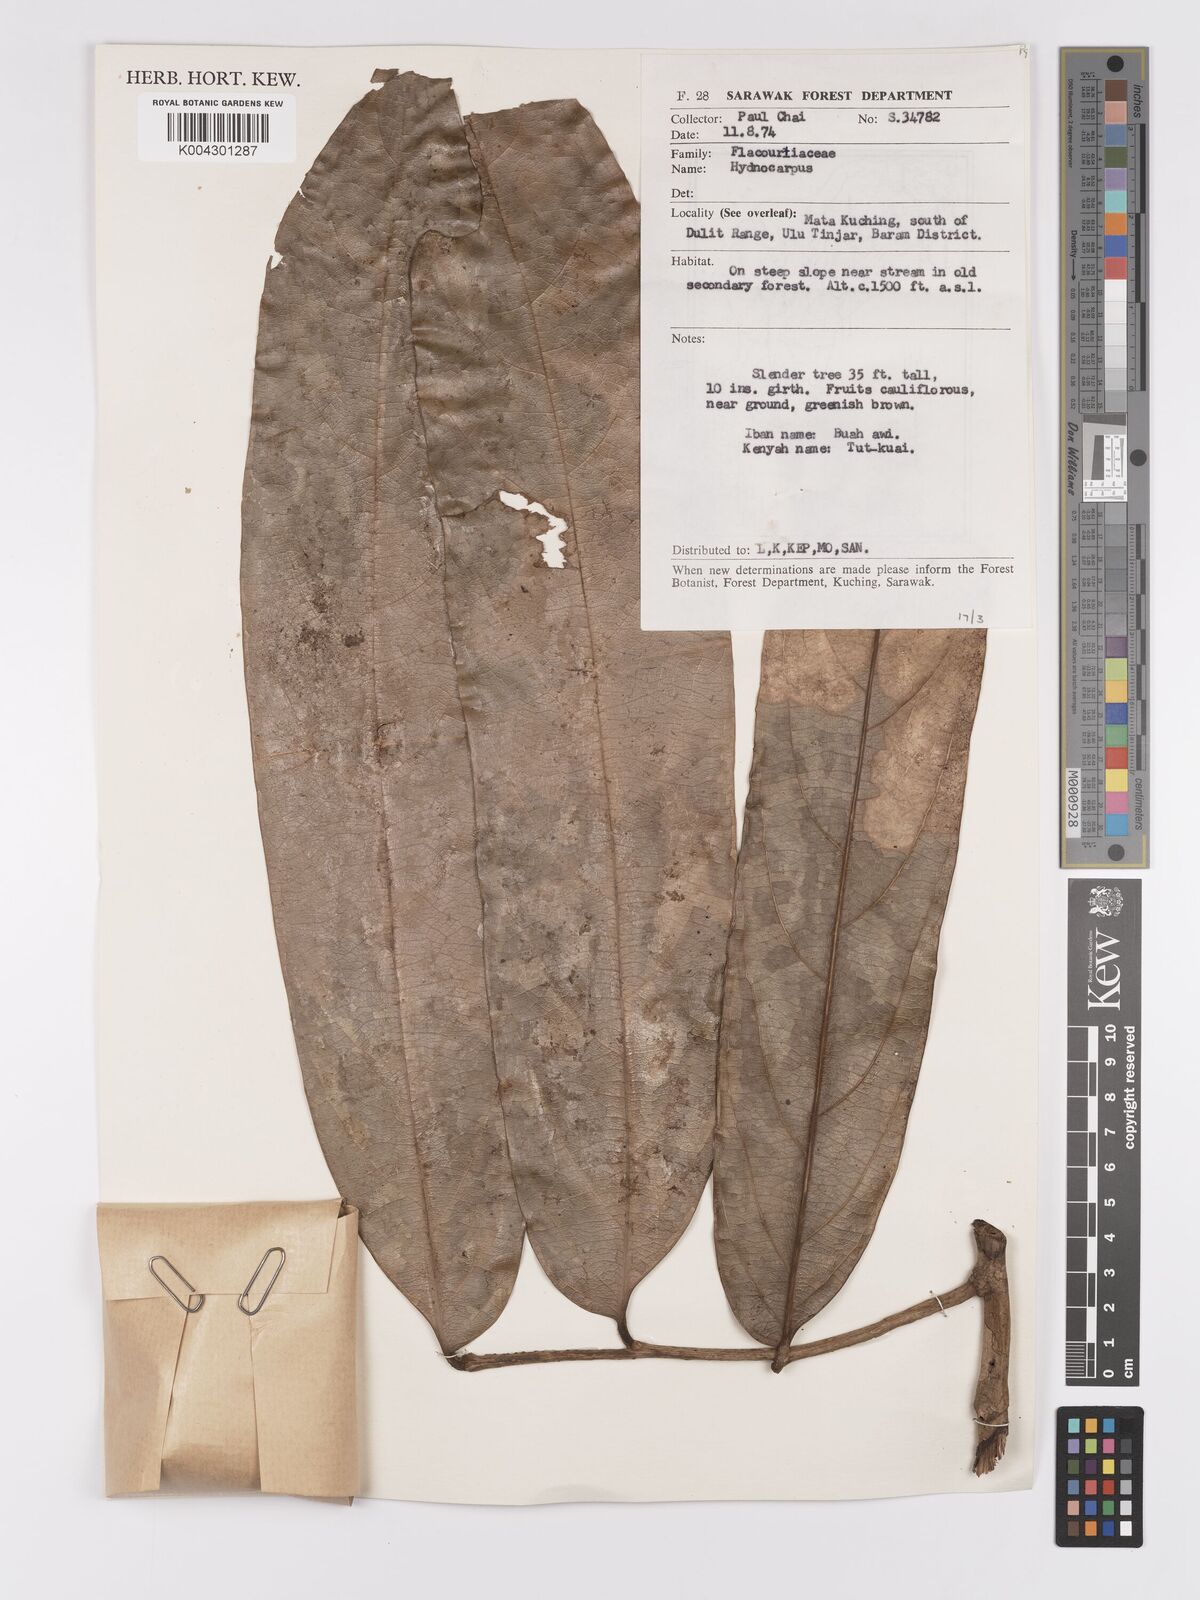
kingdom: Plantae
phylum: Tracheophyta
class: Magnoliopsida
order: Malpighiales
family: Achariaceae
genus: Hydnocarpus
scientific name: Hydnocarpus
